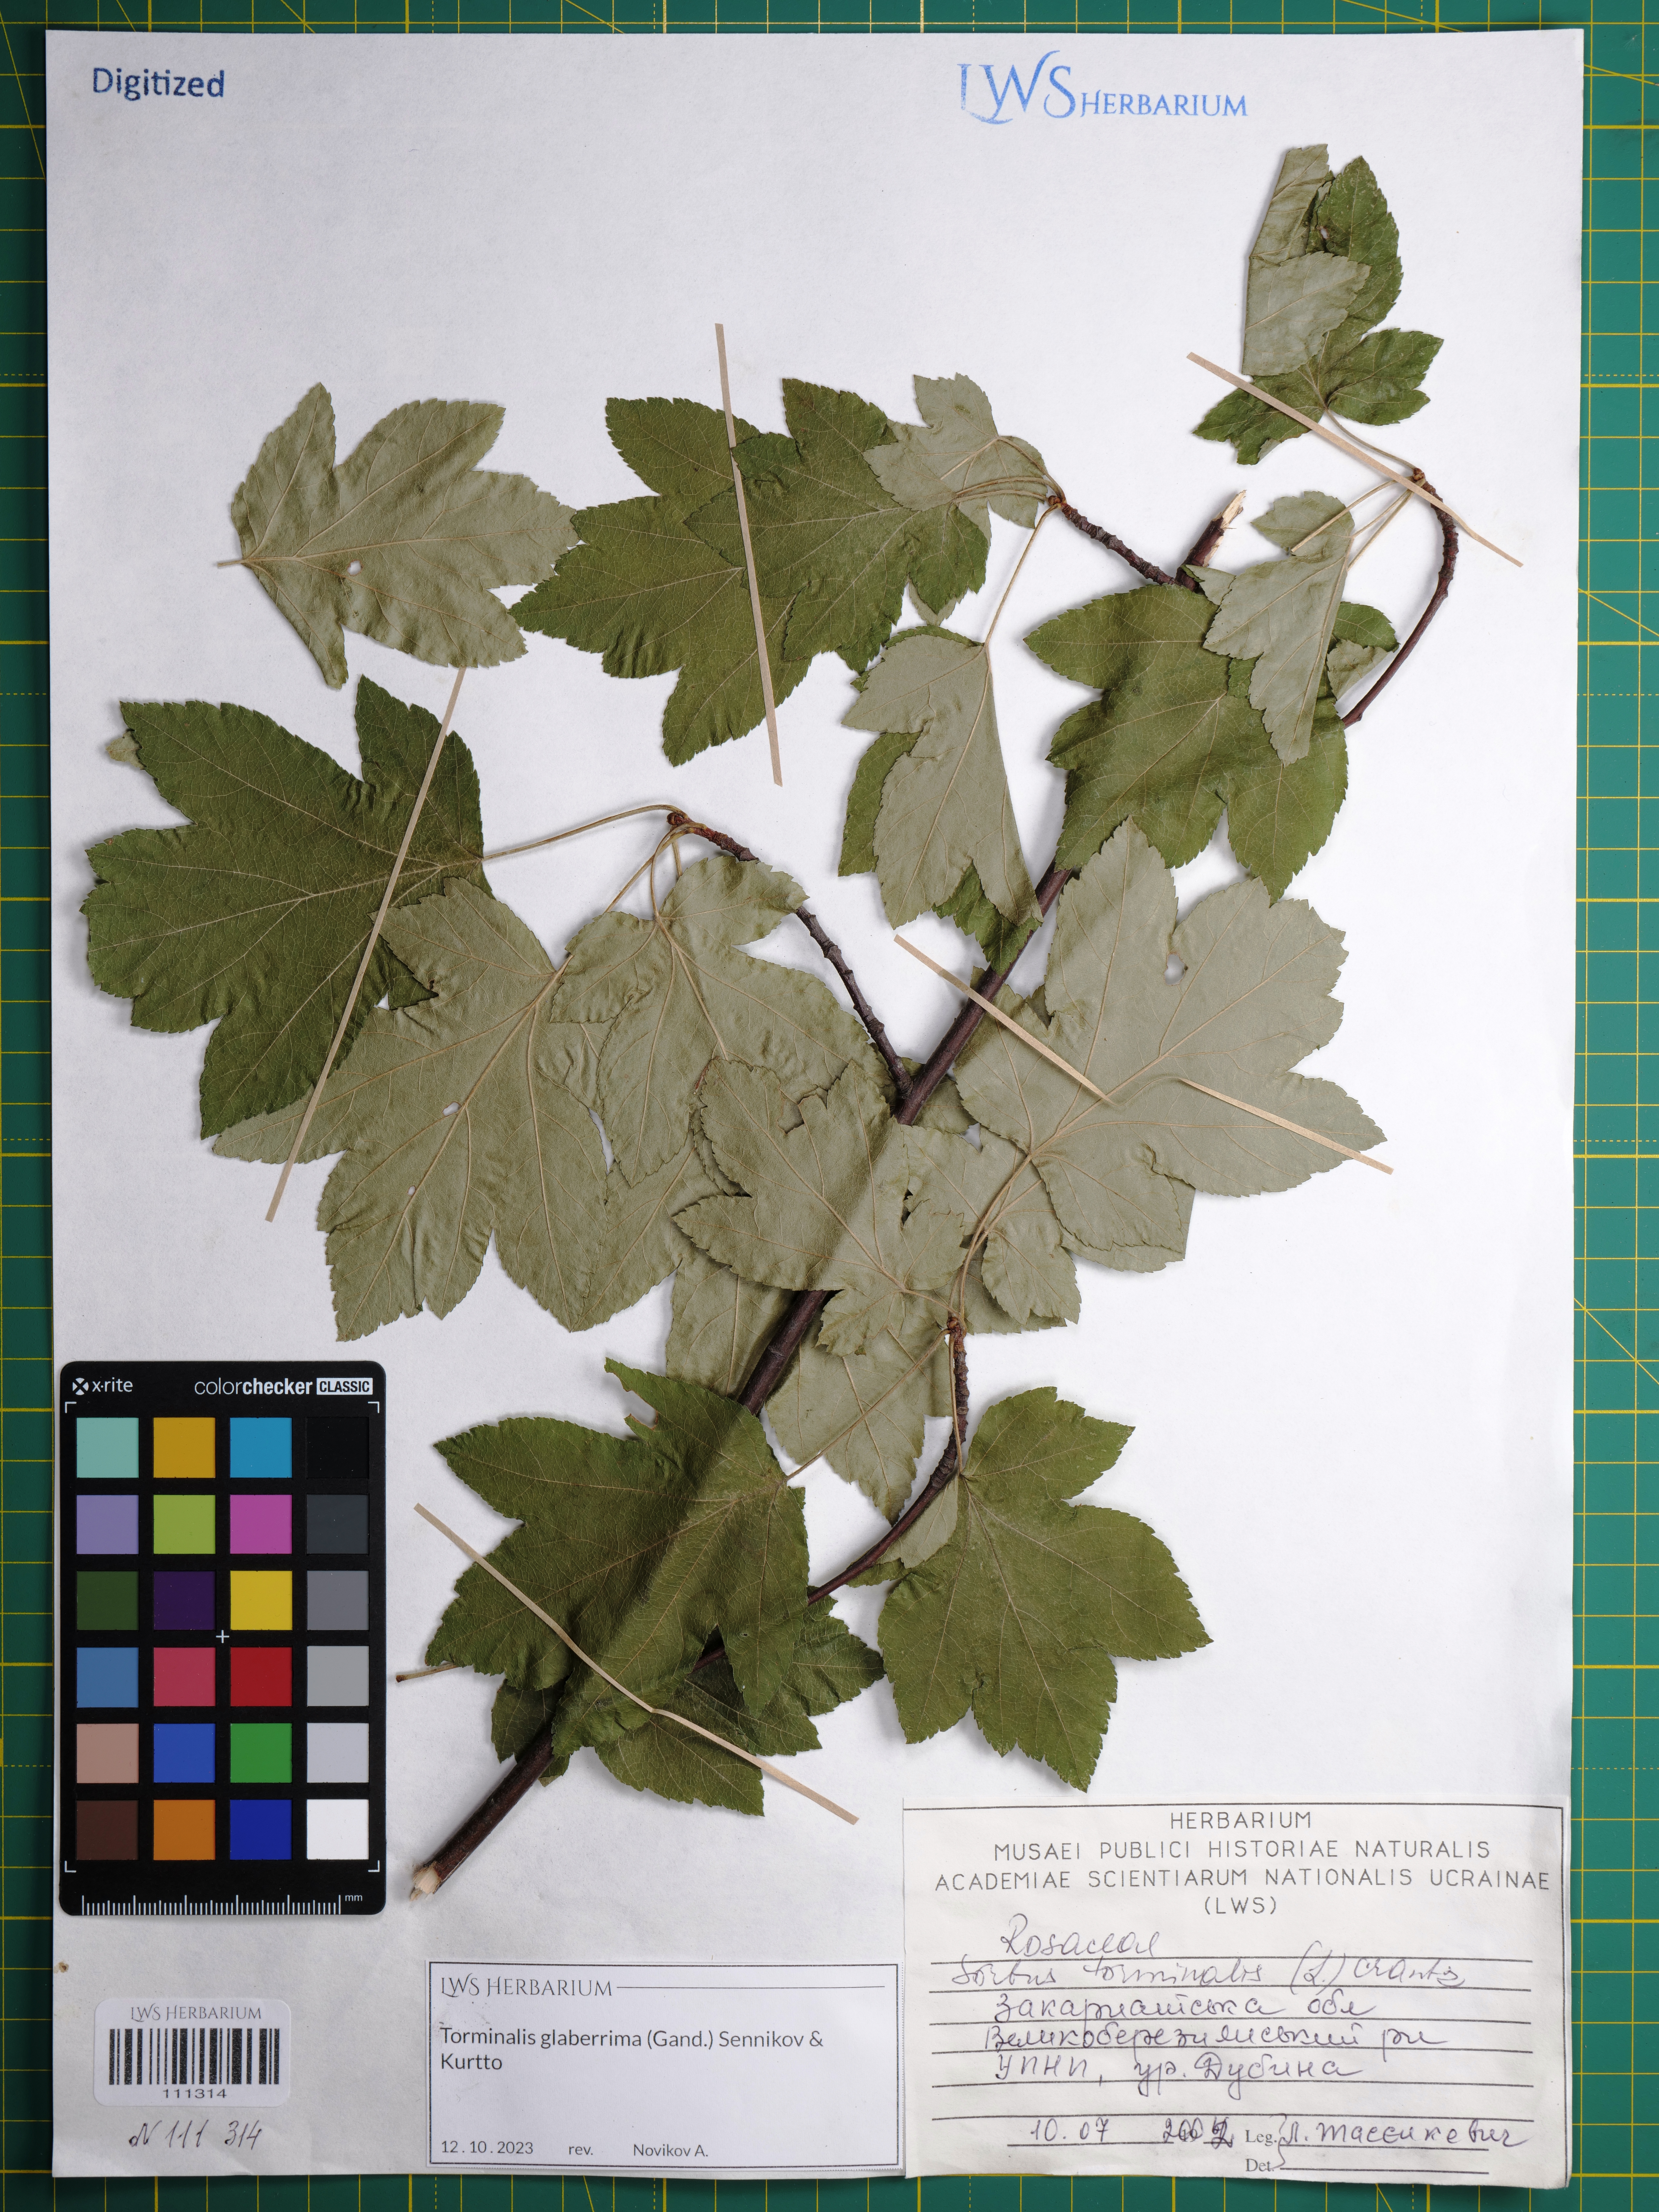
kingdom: Plantae
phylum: Tracheophyta
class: Magnoliopsida
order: Rosales
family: Rosaceae
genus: Torminalis
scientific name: Torminalis glaberrima
